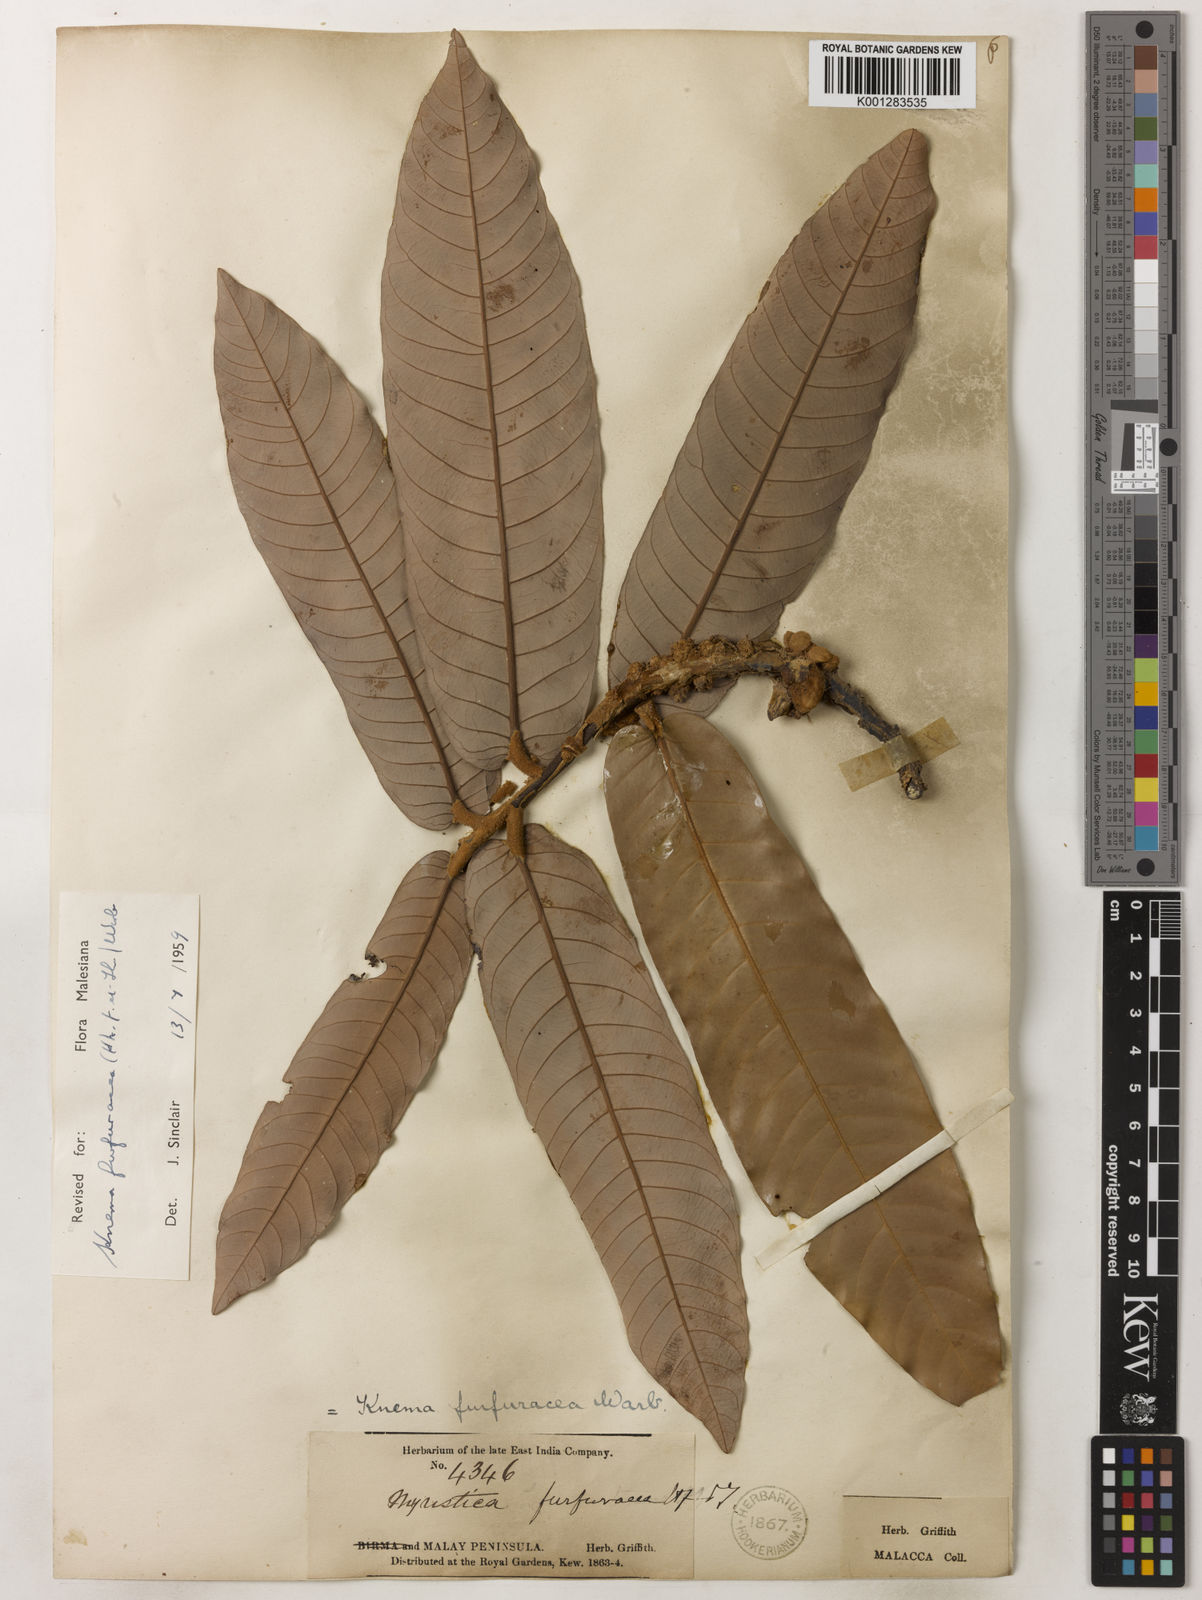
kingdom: Plantae
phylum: Tracheophyta
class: Magnoliopsida
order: Magnoliales
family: Myristicaceae
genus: Knema
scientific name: Knema furfuracea
